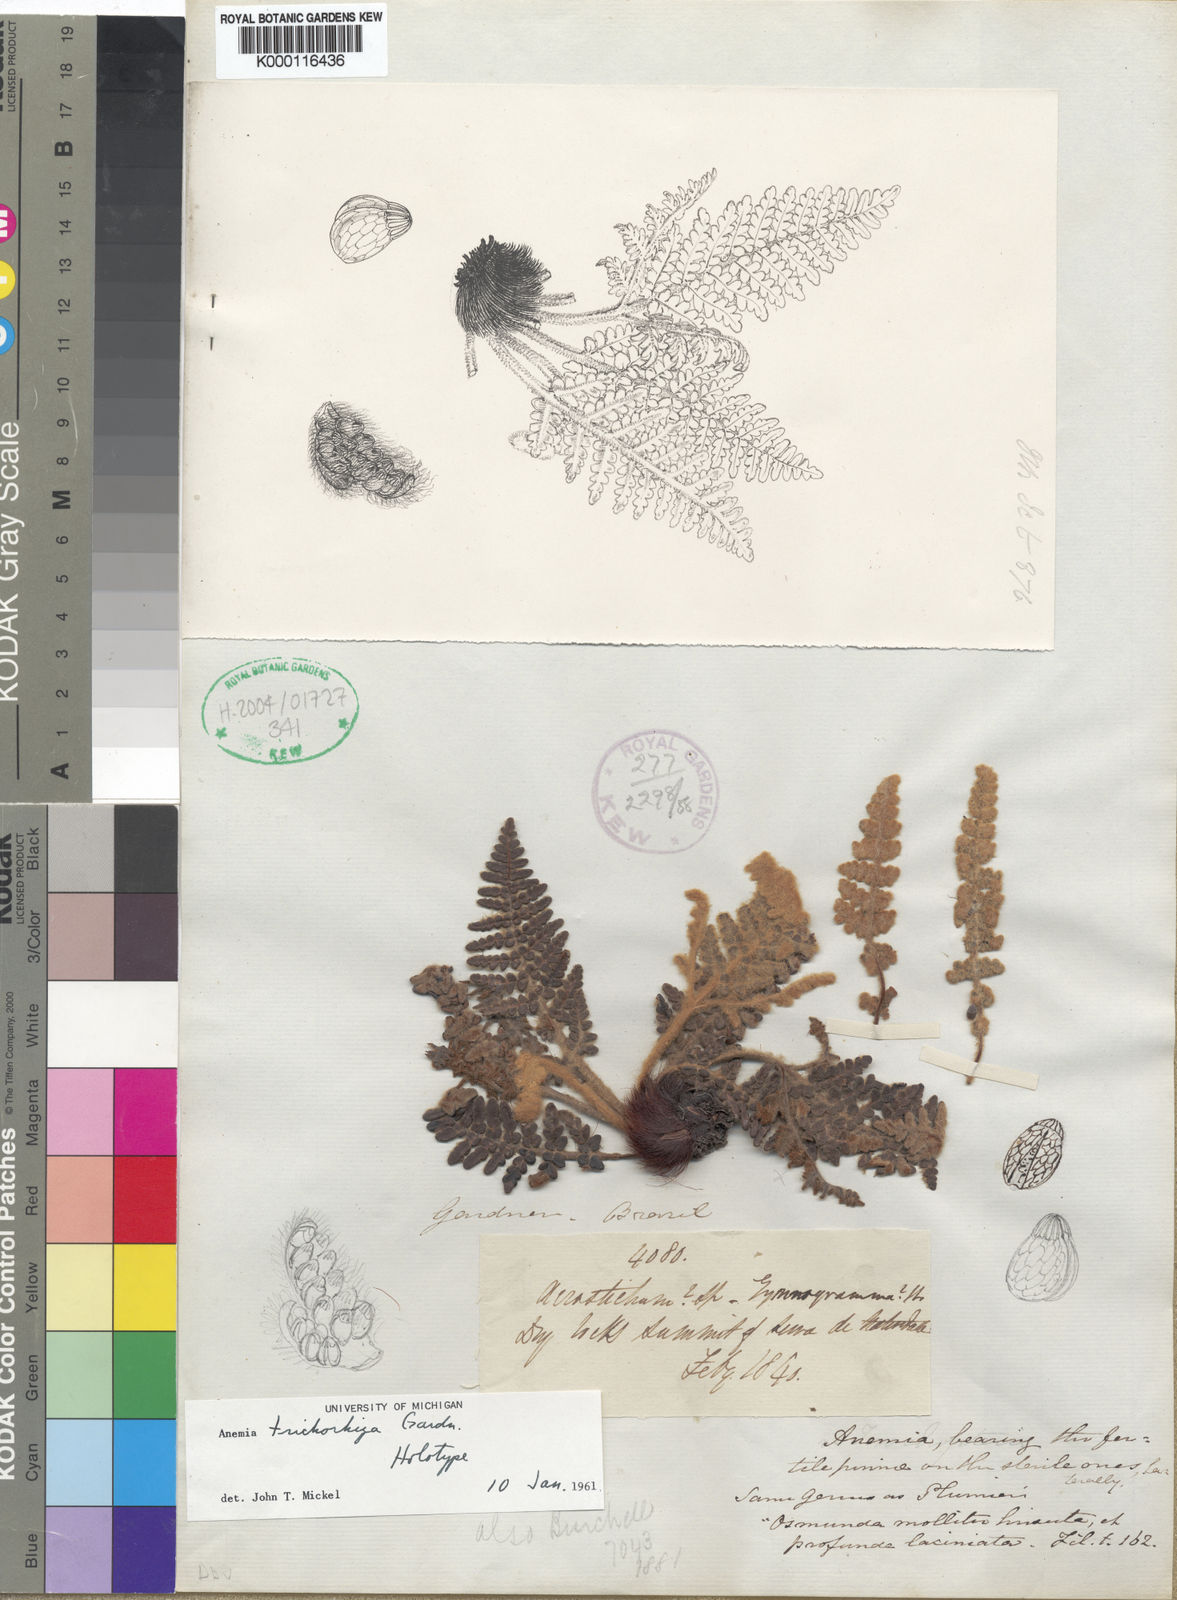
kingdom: Plantae
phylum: Tracheophyta
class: Polypodiopsida
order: Schizaeales
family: Anemiaceae
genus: Anemia
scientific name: Anemia
